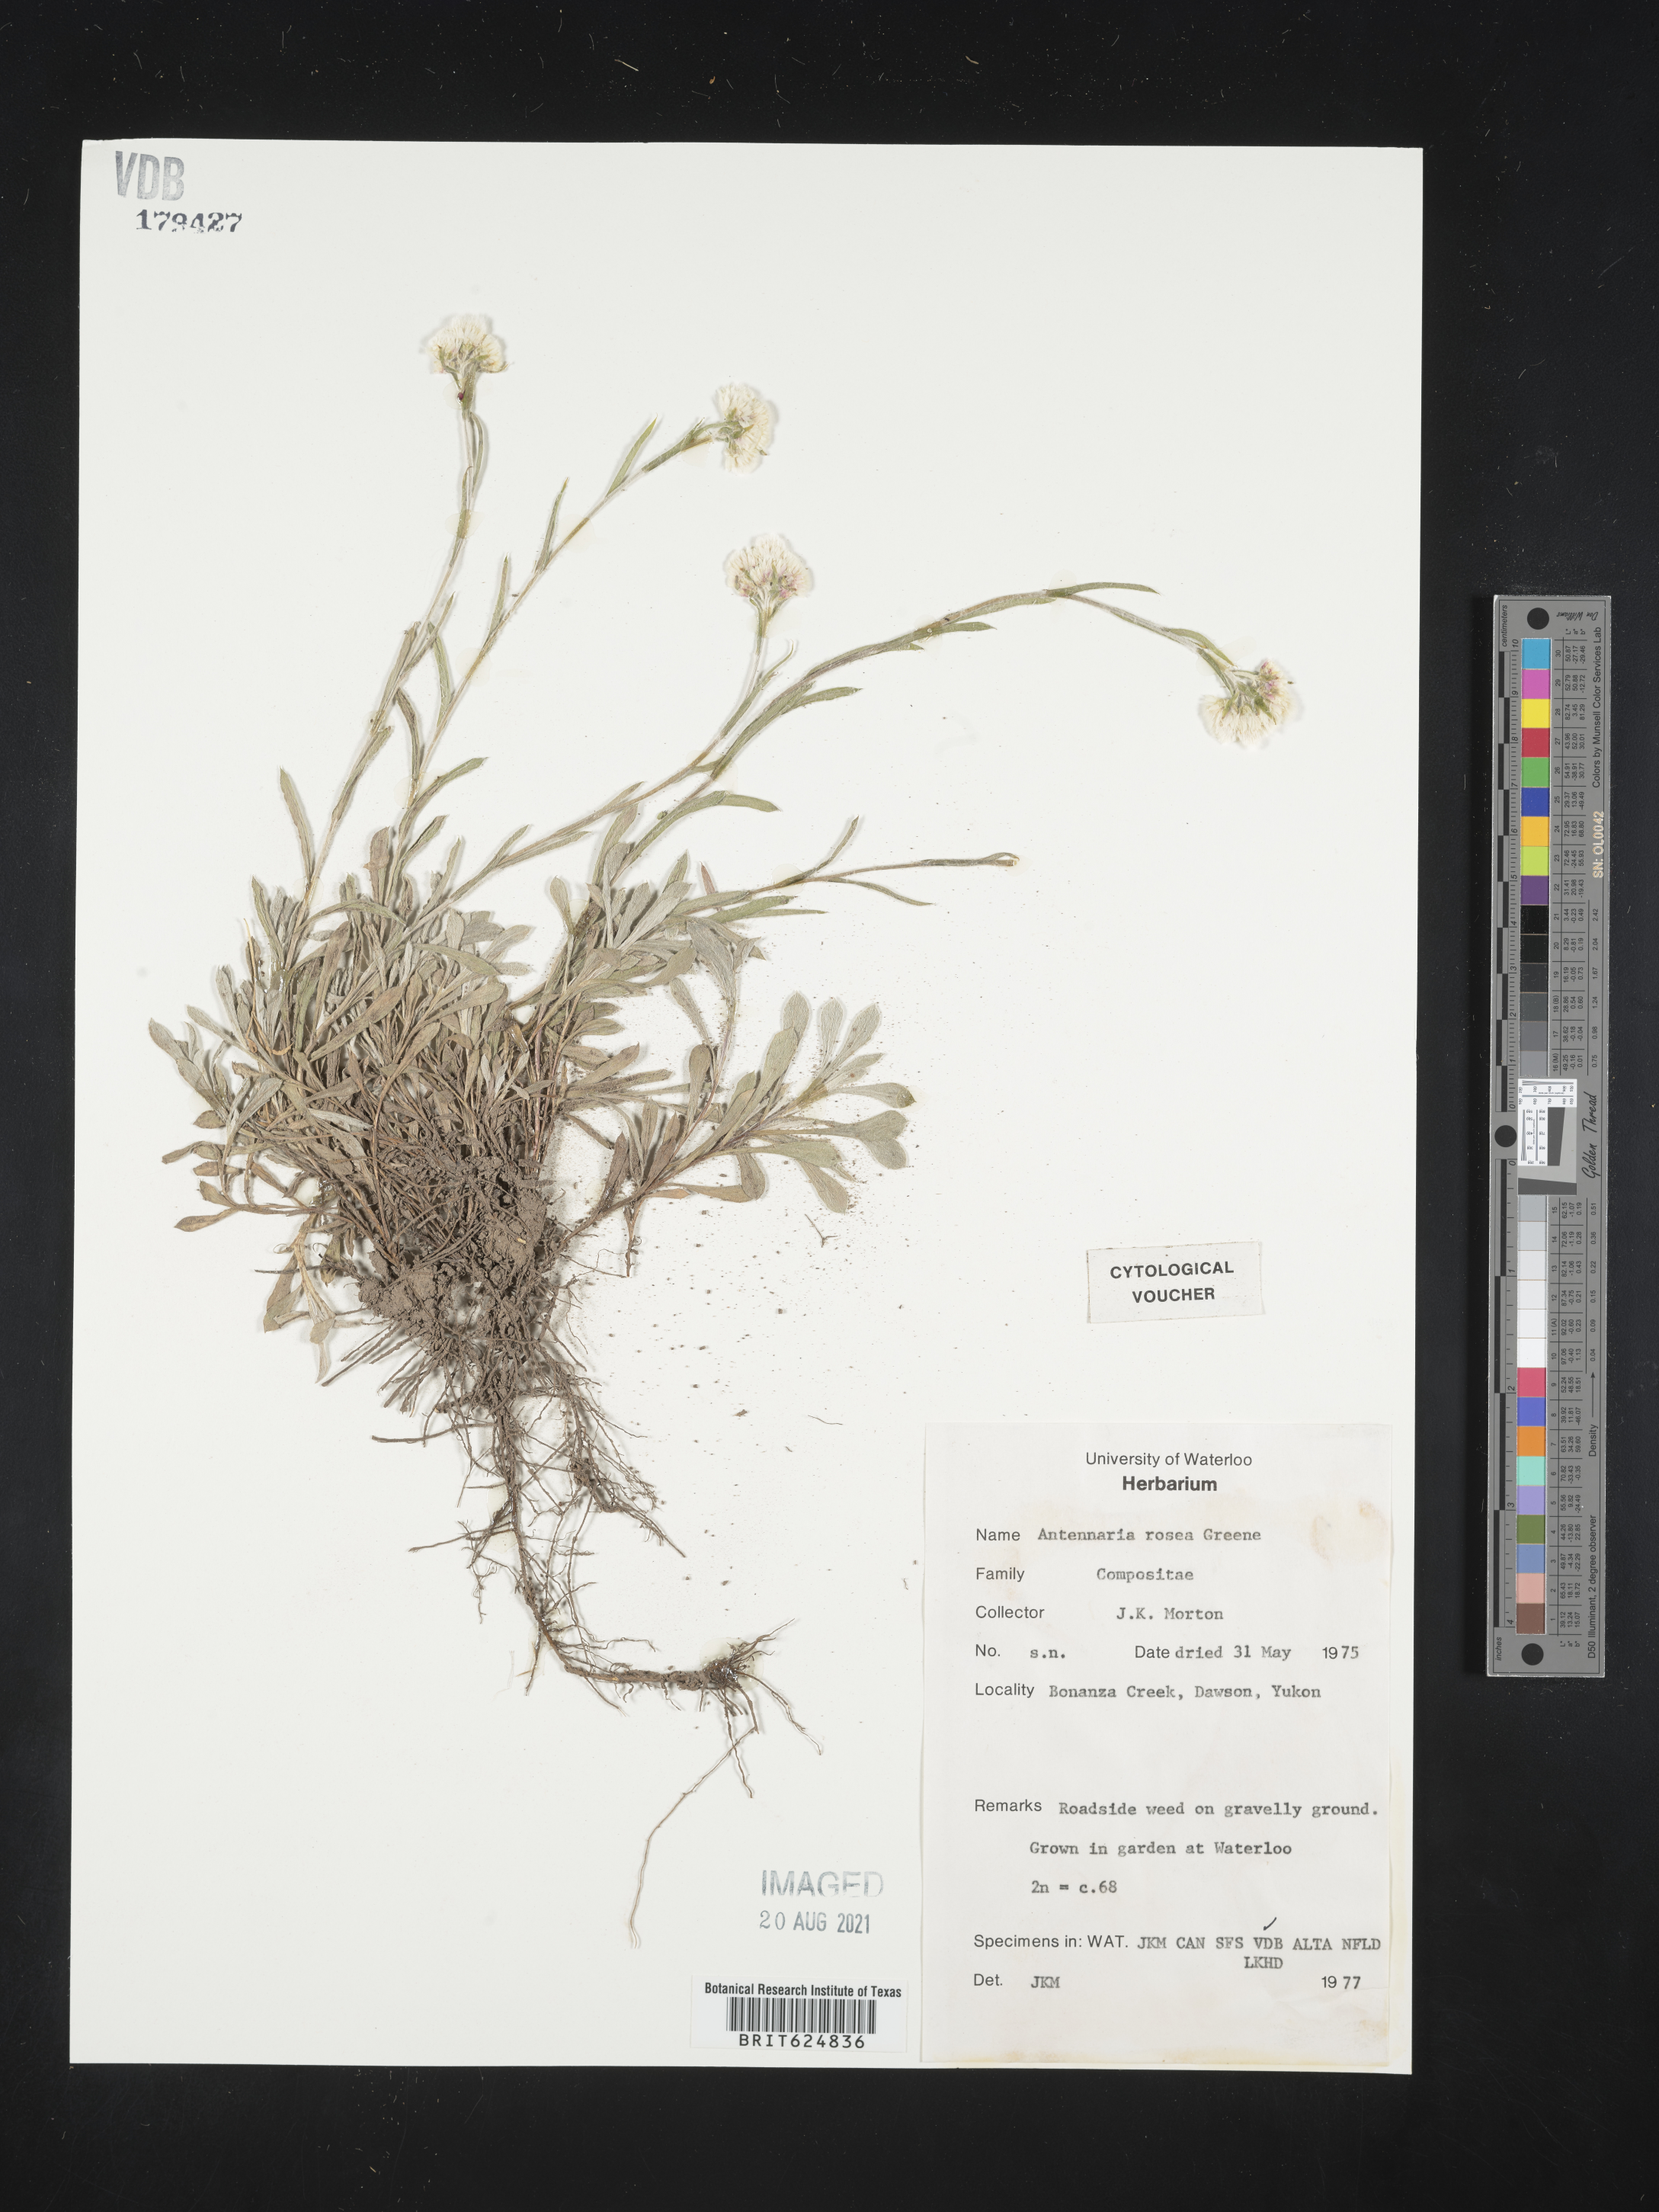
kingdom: Plantae
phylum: Tracheophyta
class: Magnoliopsida
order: Asterales
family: Asteraceae
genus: Antennaria
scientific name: Antennaria rosea
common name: Rosy pussytoes
